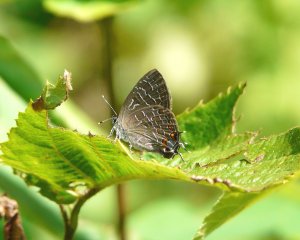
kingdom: Animalia
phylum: Arthropoda
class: Insecta
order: Lepidoptera
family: Lycaenidae
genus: Satyrium
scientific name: Satyrium liparops
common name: Striped Hairstreak
